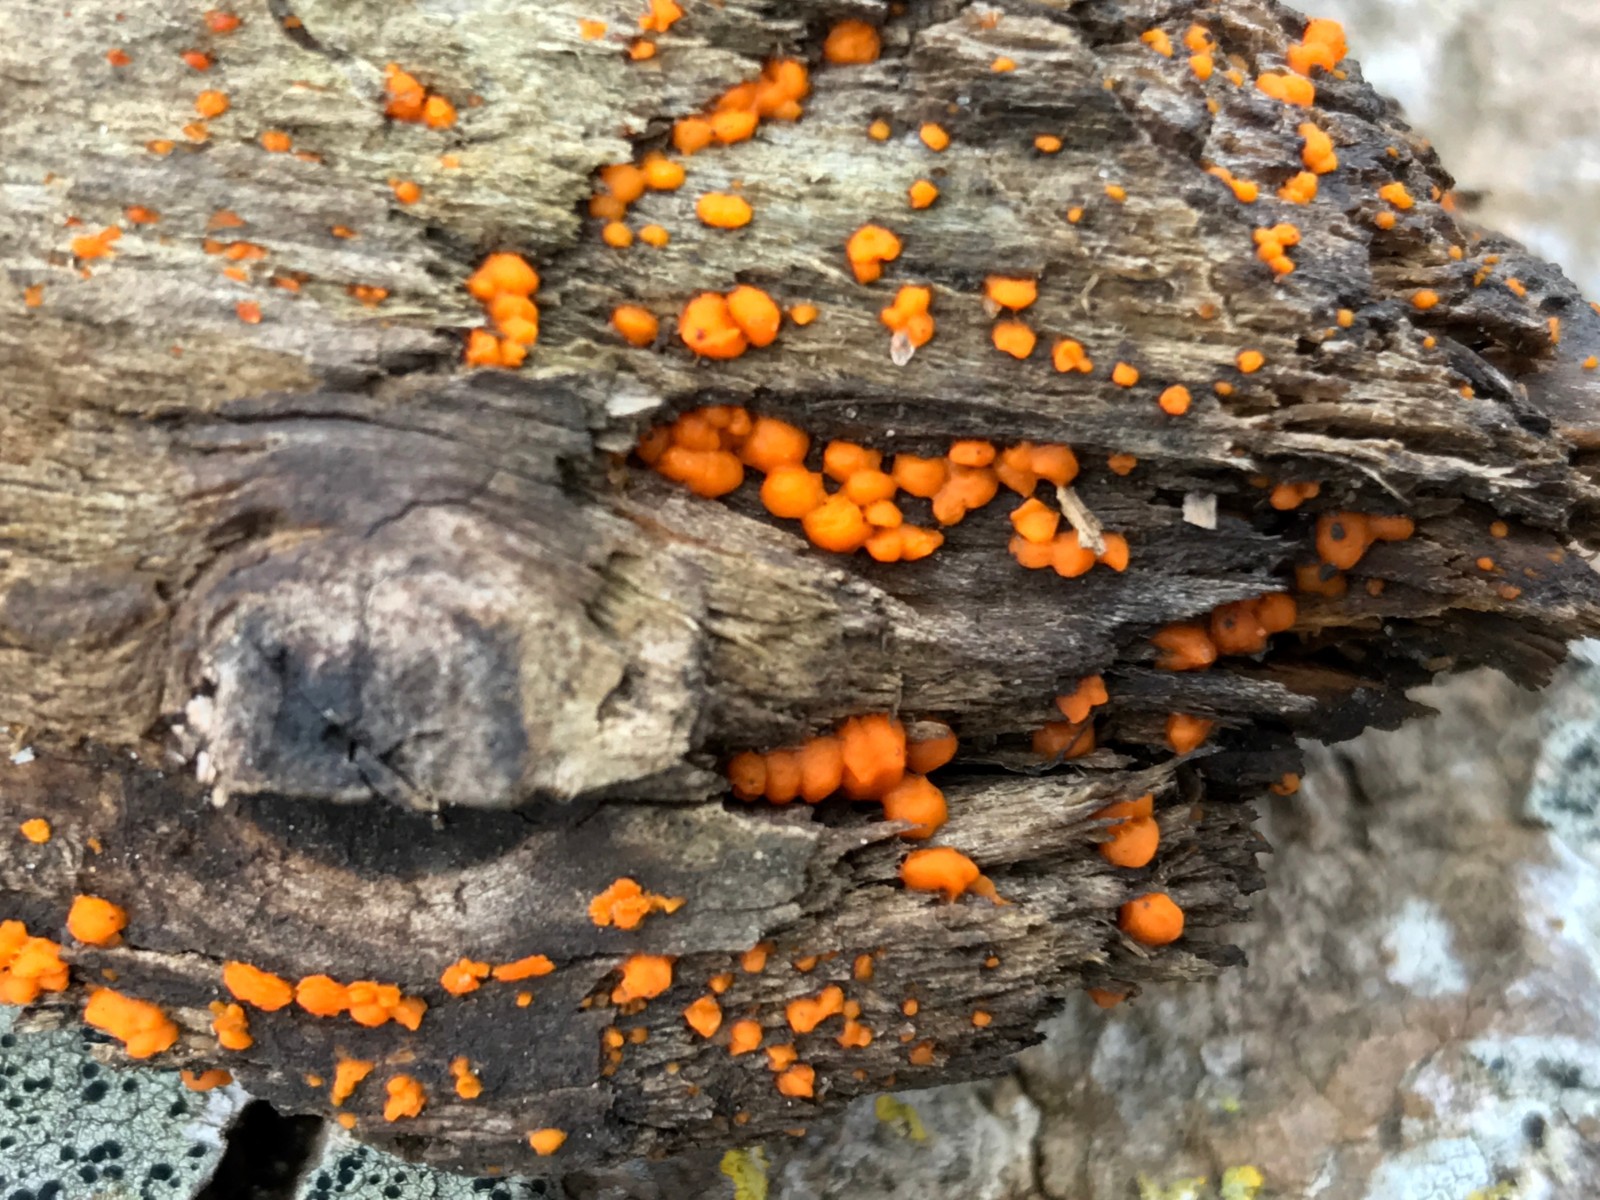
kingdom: Fungi
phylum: Basidiomycota
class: Dacrymycetes
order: Dacrymycetales
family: Dacrymycetaceae
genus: Dacrymyces
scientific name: Dacrymyces stillatus
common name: almindelig tåresvamp
